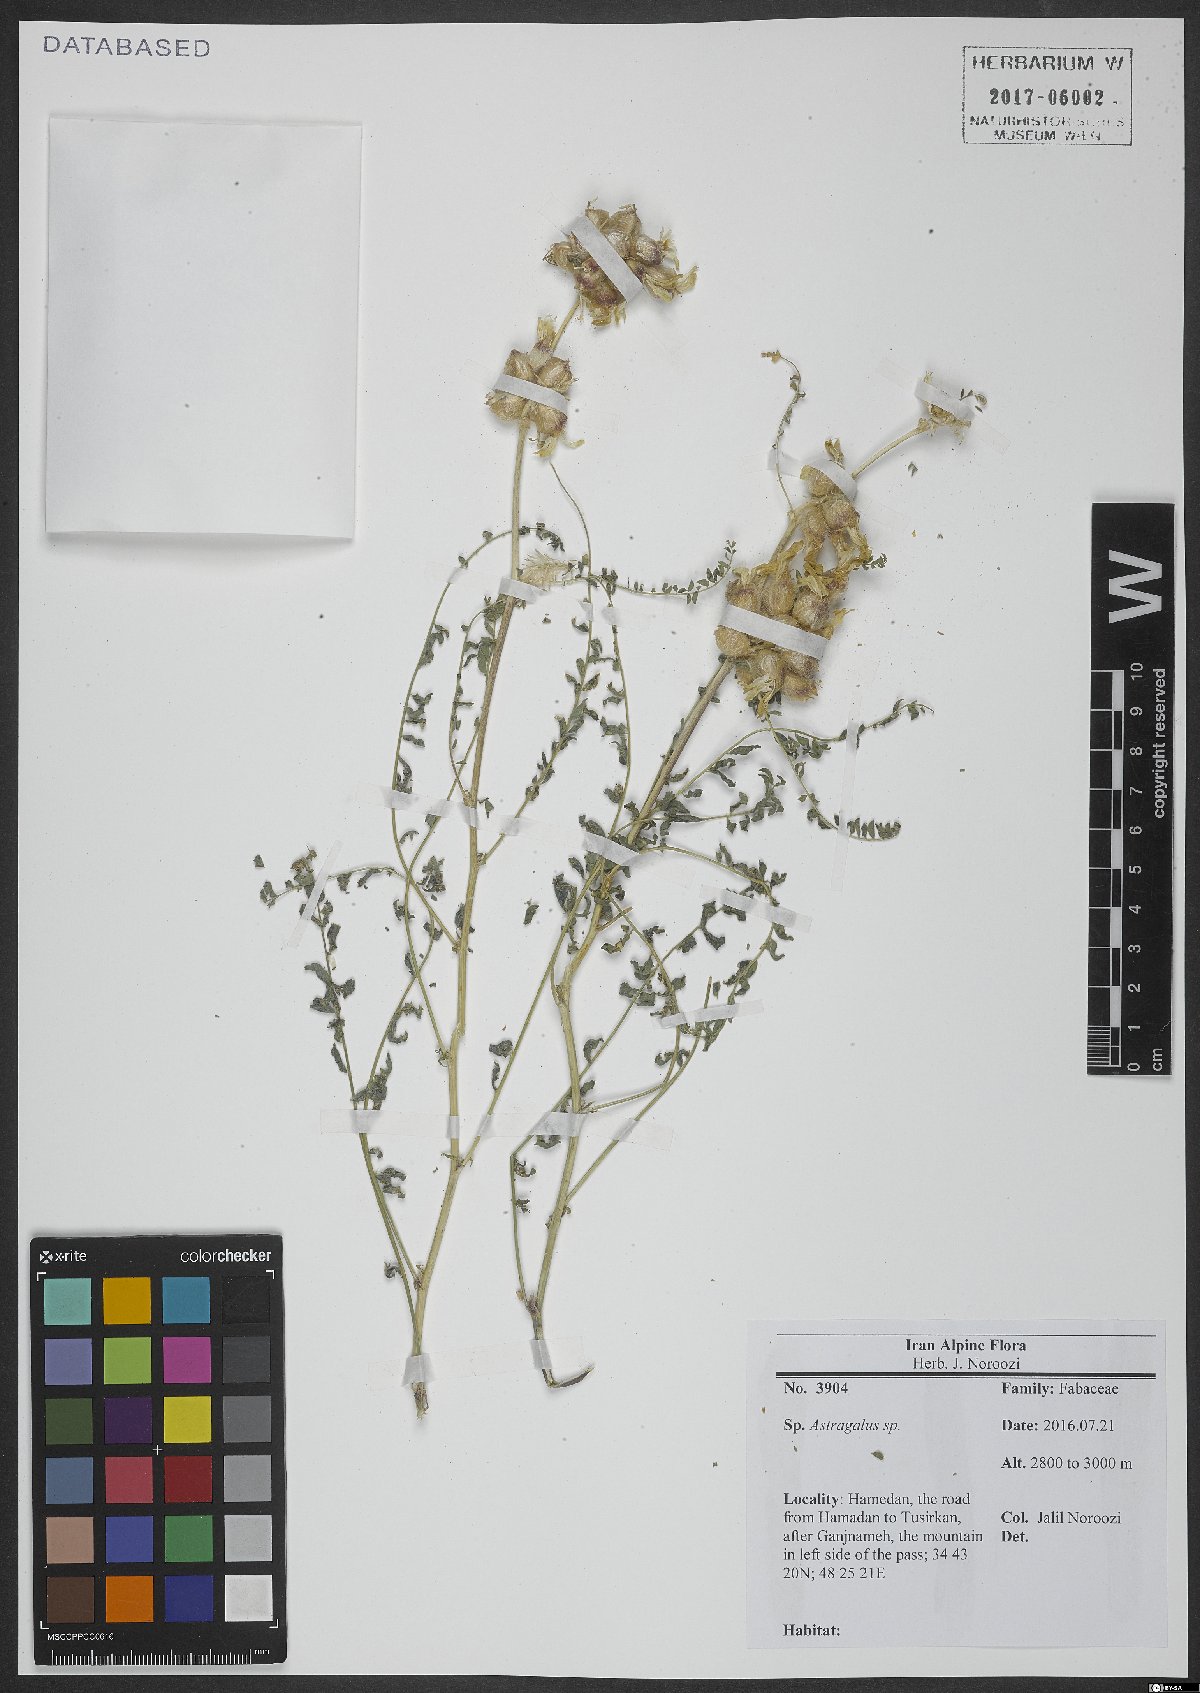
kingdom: Plantae
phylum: Tracheophyta
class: Magnoliopsida
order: Fabales
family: Fabaceae
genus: Astragalus
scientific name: Astragalus
